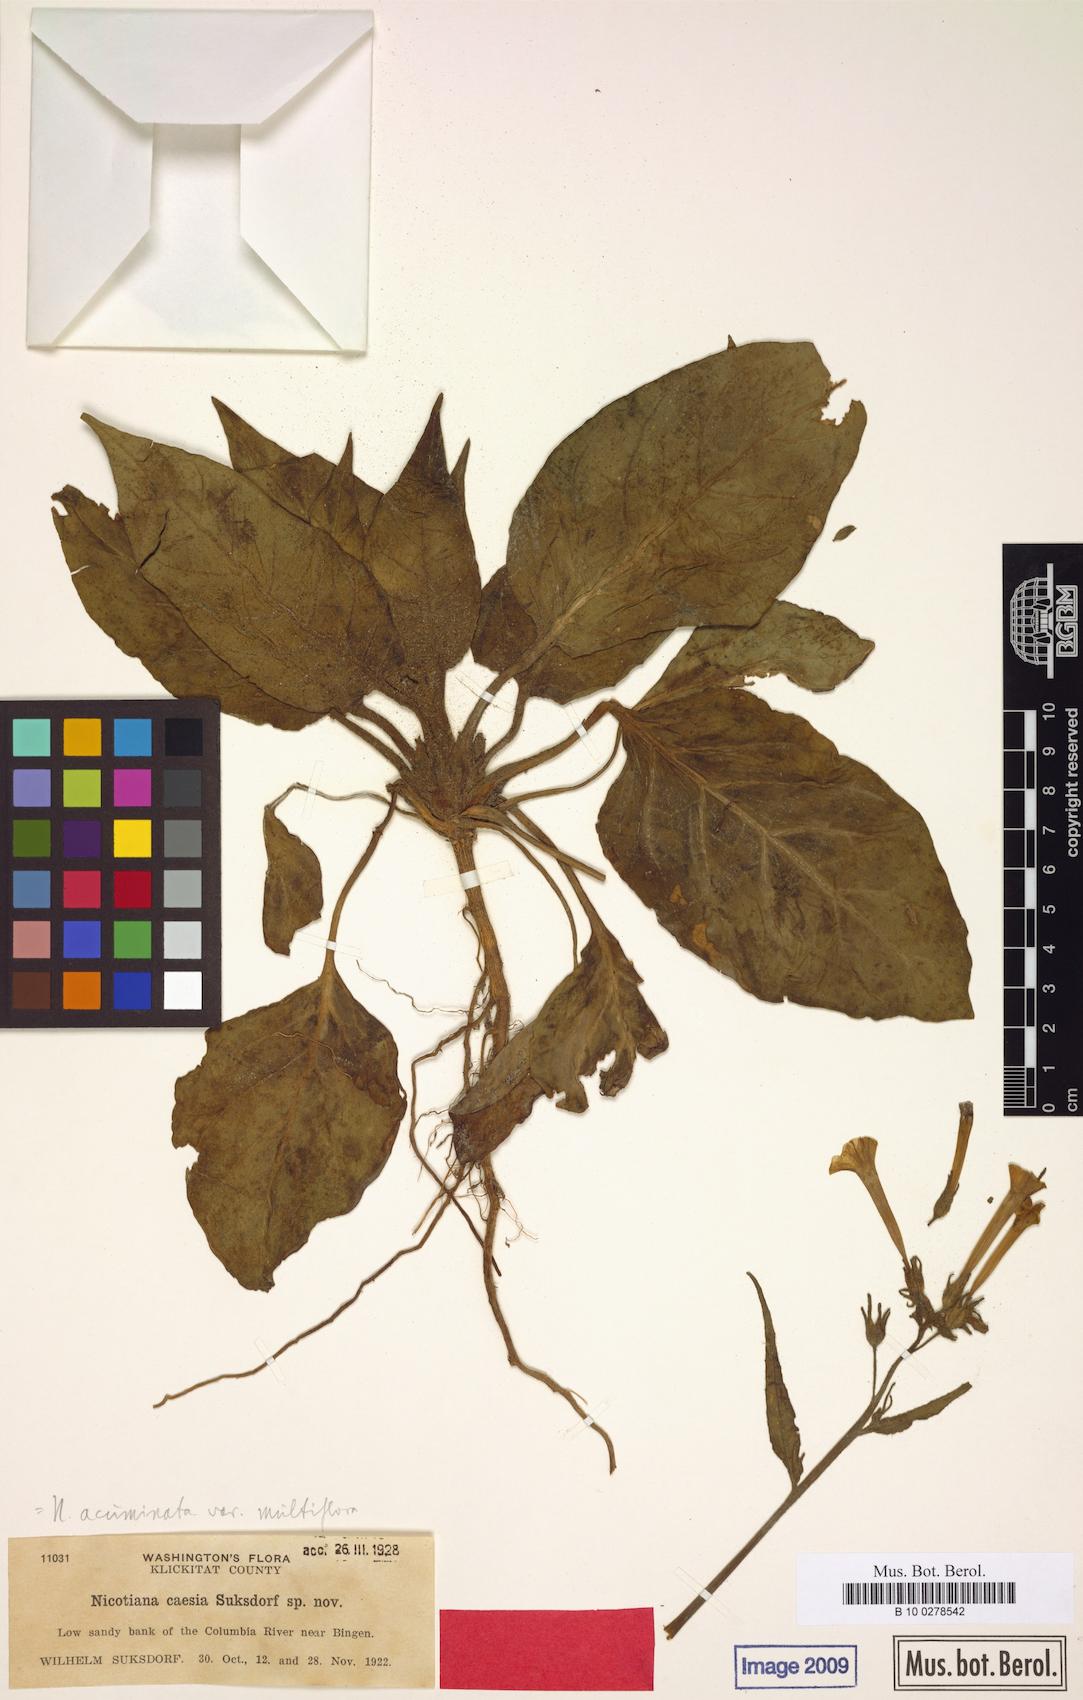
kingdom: Plantae
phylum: Tracheophyta
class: Magnoliopsida
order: Solanales
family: Solanaceae
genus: Nicotiana
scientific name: Nicotiana acuminata
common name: Manyflower tobacco
